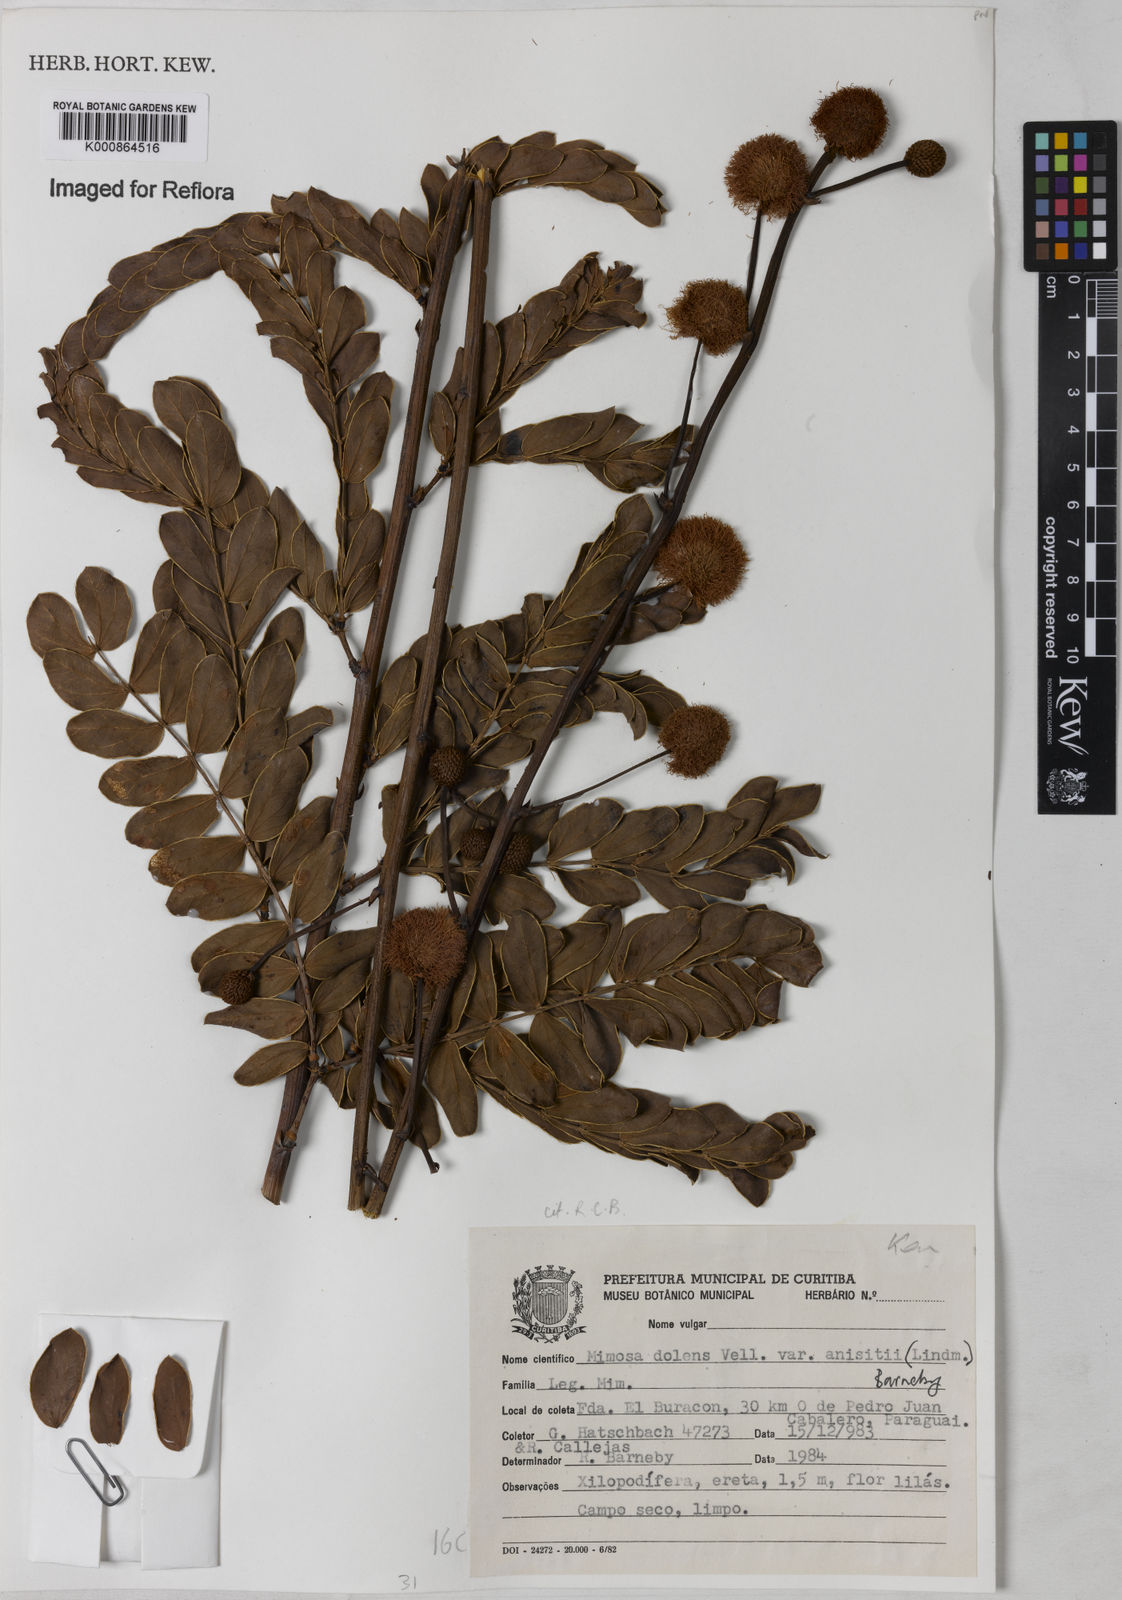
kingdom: Plantae
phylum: Tracheophyta
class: Magnoliopsida
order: Fabales
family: Fabaceae
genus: Mimosa
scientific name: Mimosa dolens
